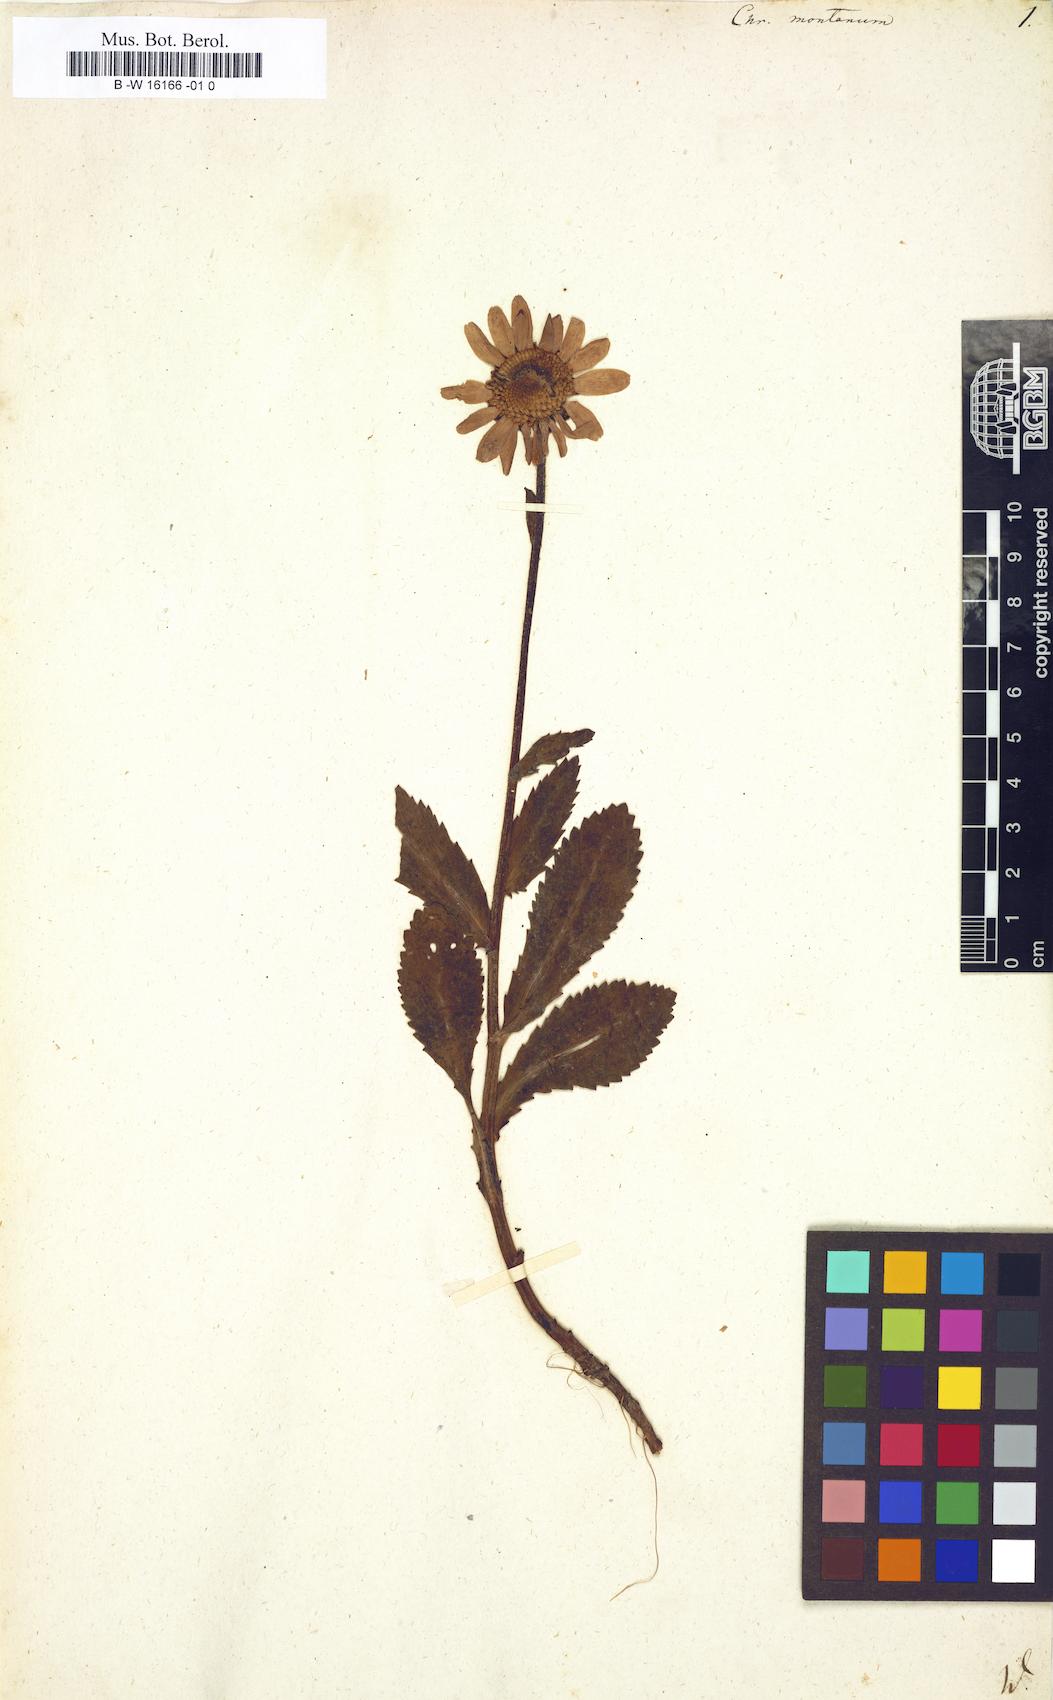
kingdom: Plantae
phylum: Tracheophyta
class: Magnoliopsida
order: Asterales
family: Asteraceae
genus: Leucanthemum
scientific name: Leucanthemum
